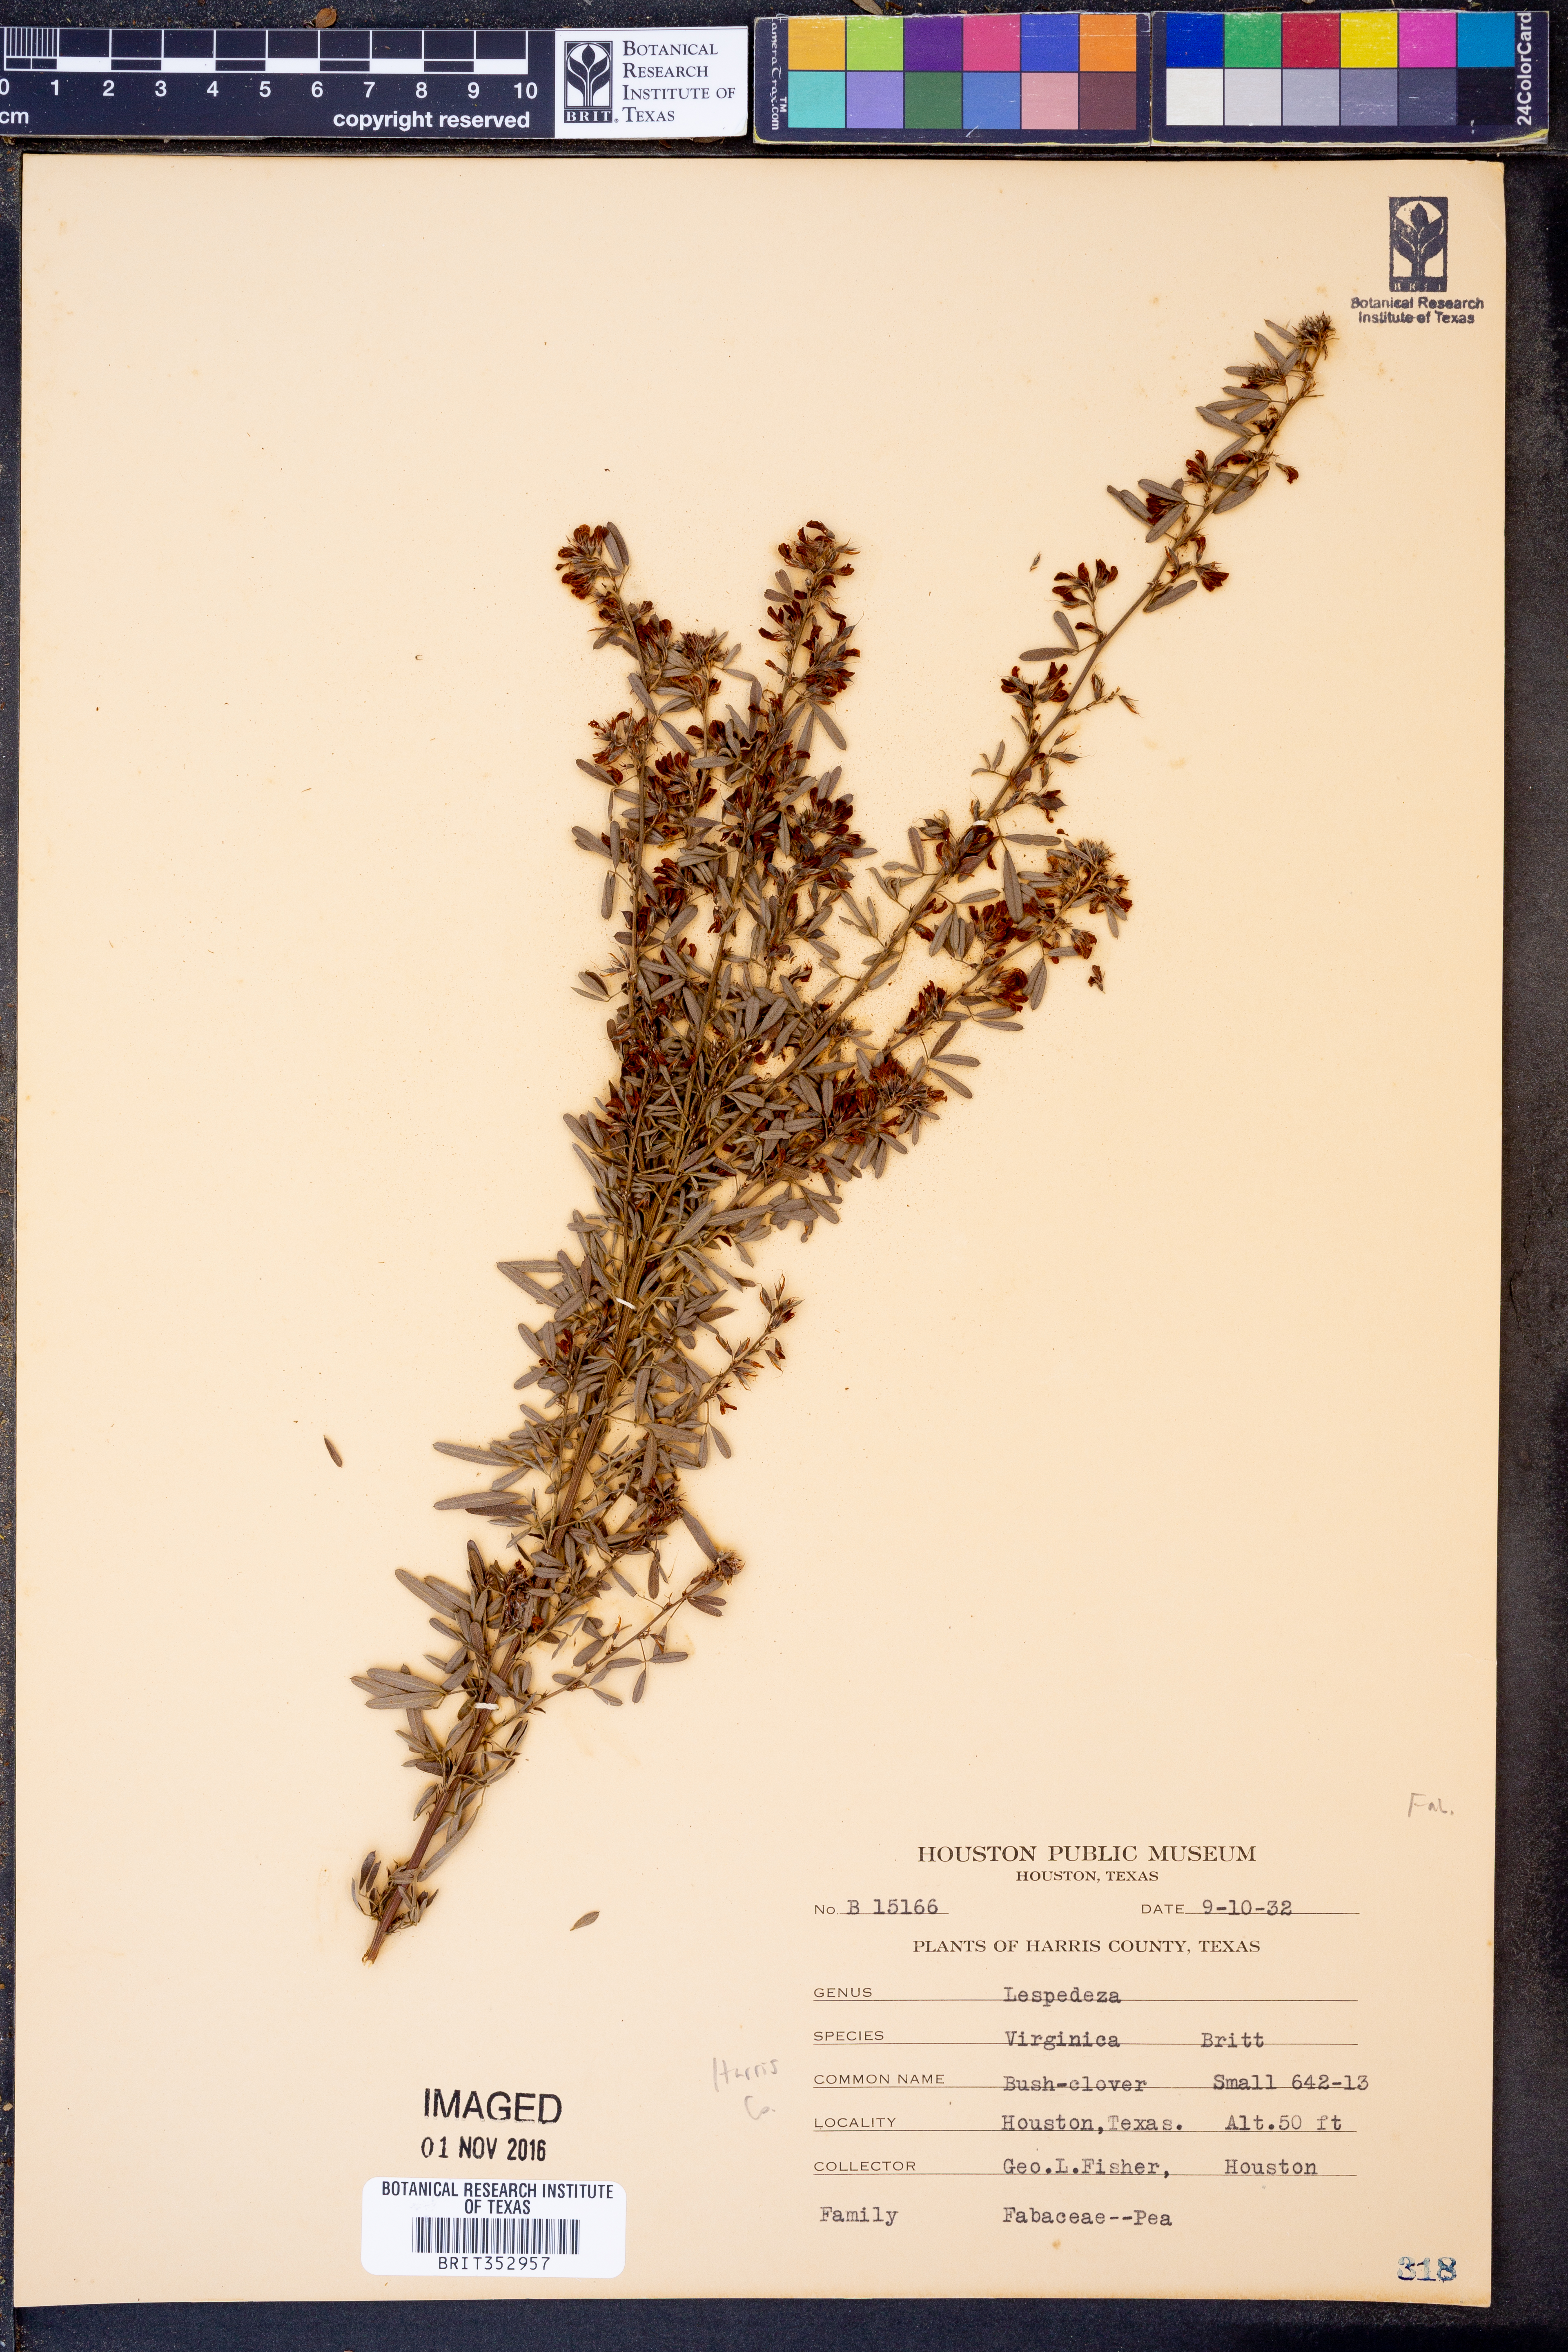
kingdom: Plantae
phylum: Tracheophyta
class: Magnoliopsida
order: Fabales
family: Fabaceae
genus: Lespedeza
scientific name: Lespedeza virginica
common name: Slender bush-clover
